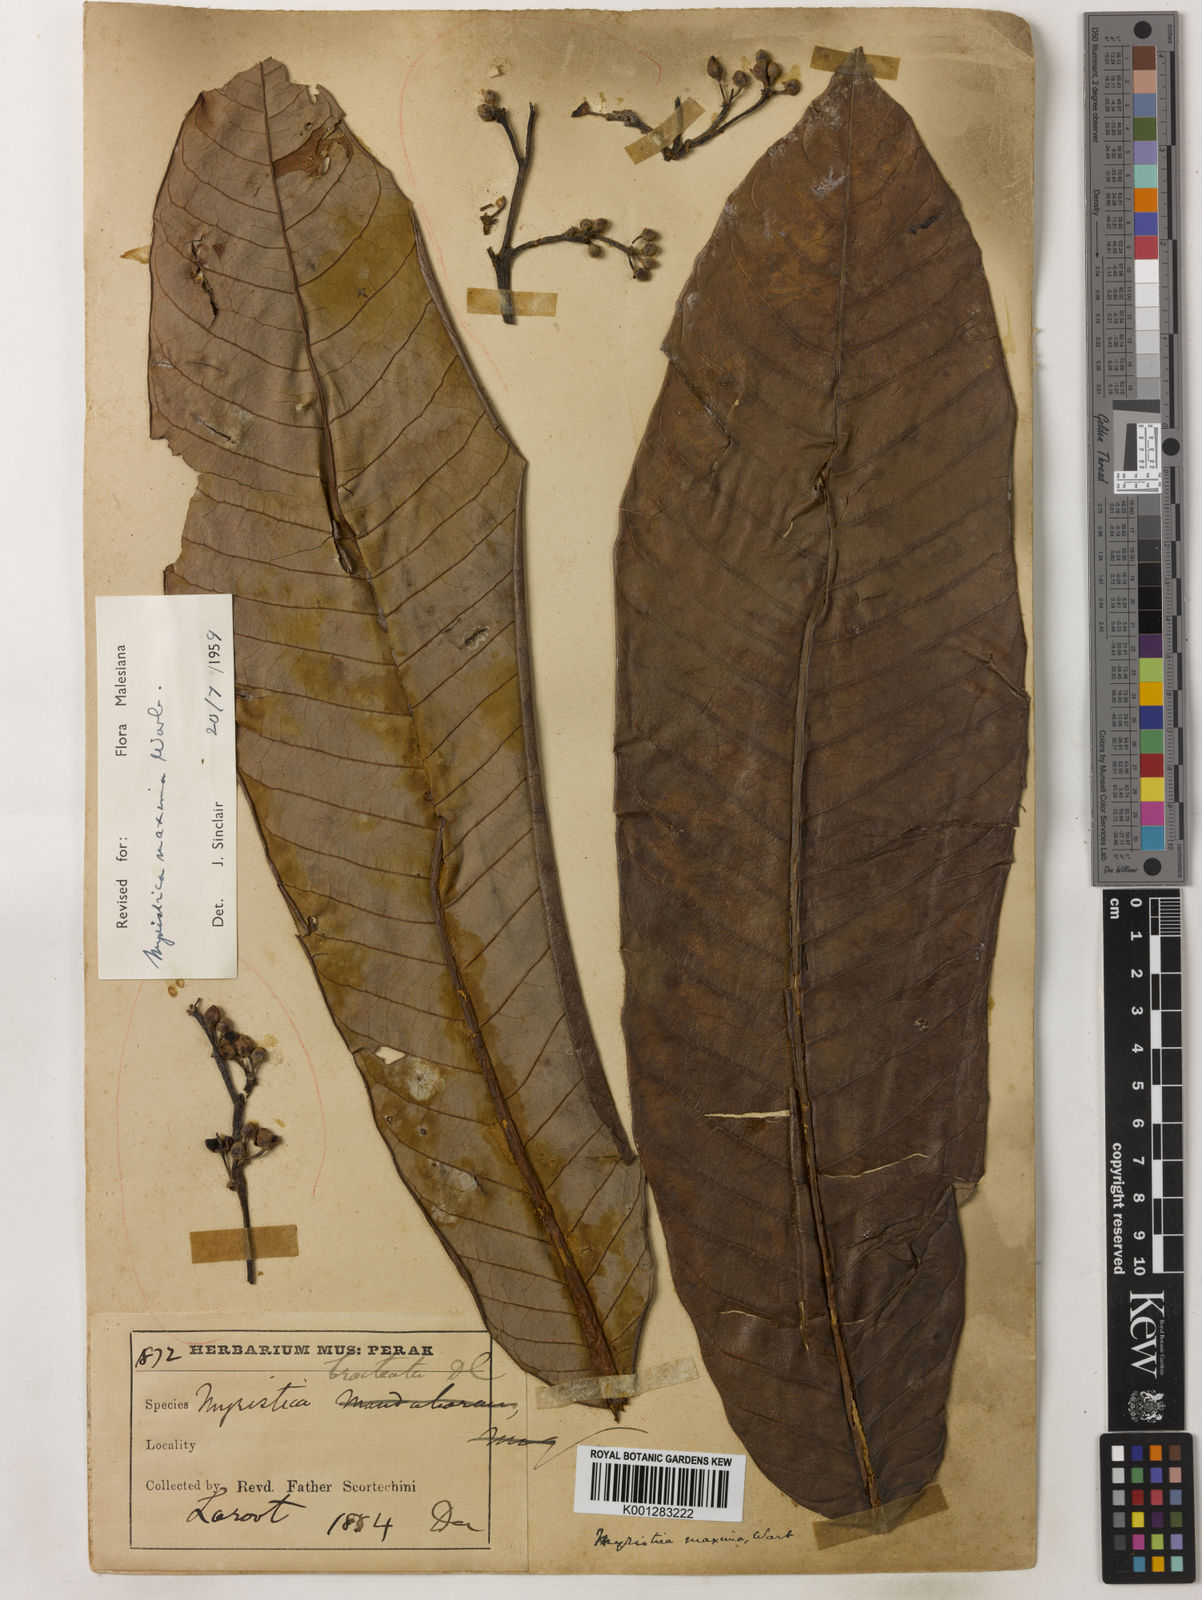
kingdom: Plantae
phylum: Tracheophyta
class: Magnoliopsida
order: Magnoliales
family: Myristicaceae
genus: Myristica
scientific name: Myristica maxima
